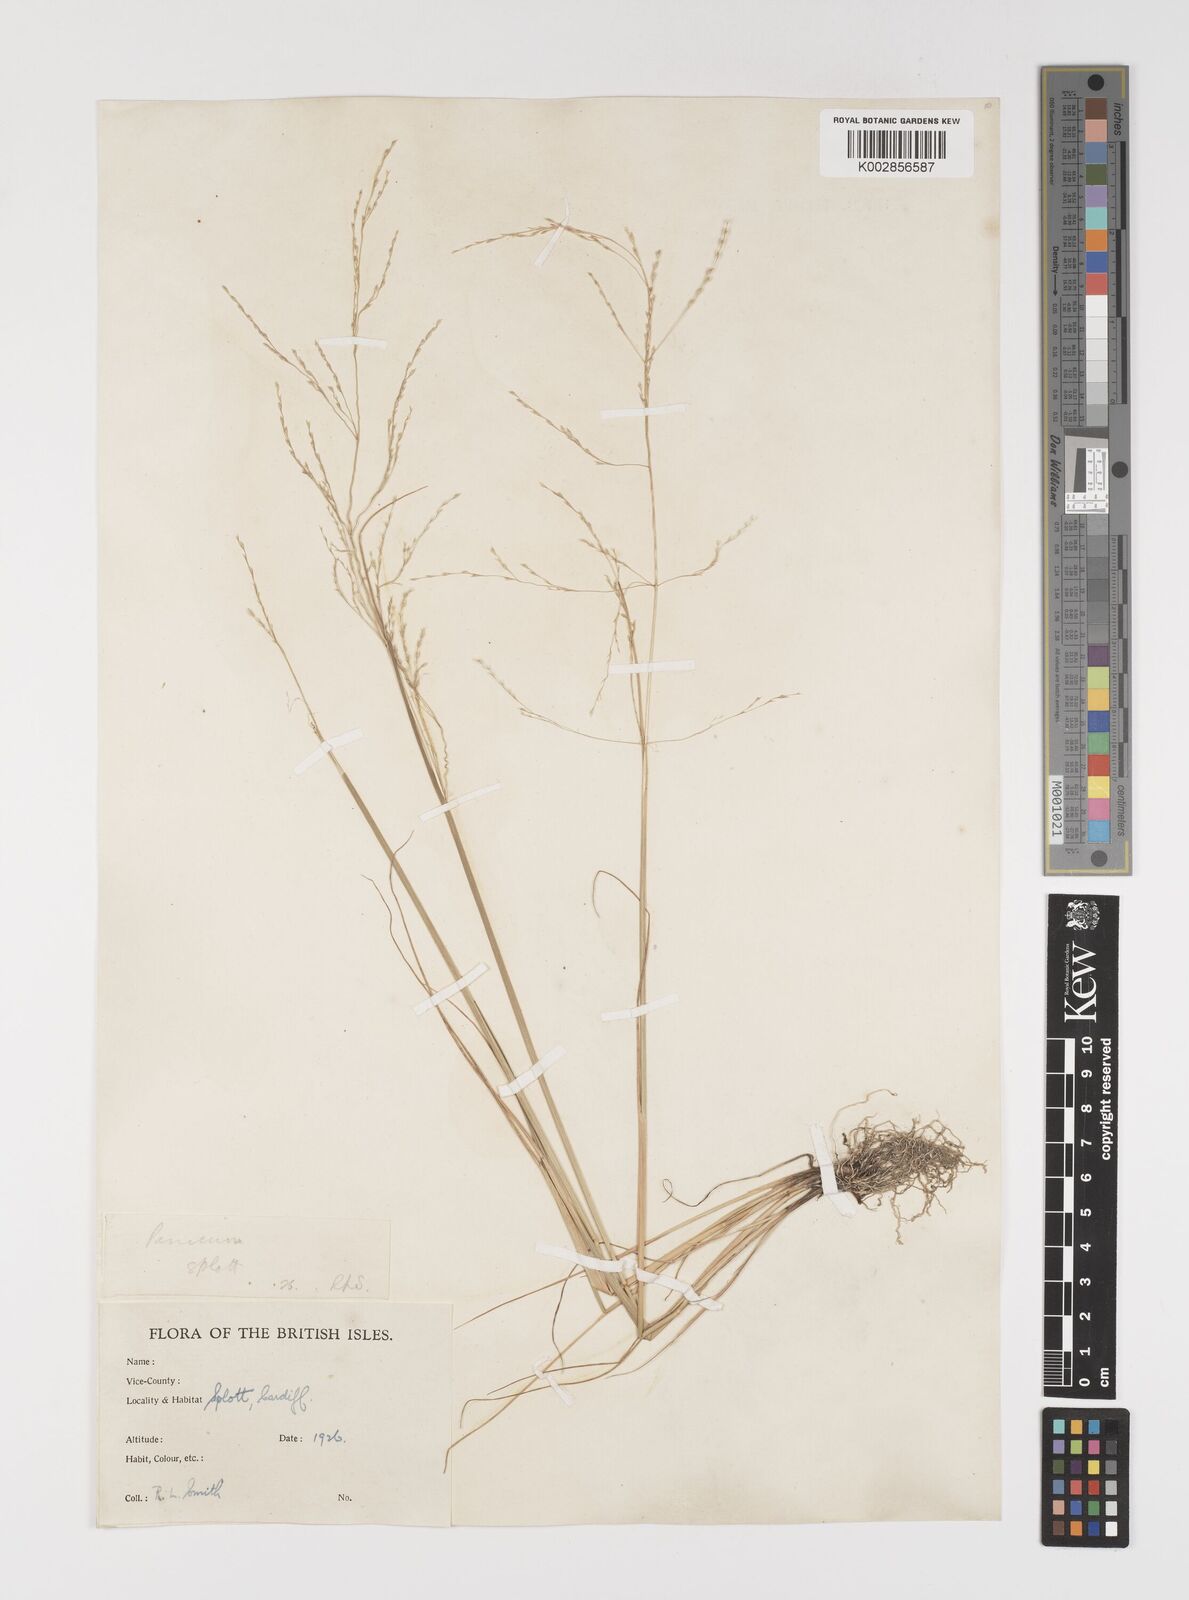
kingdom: Plantae
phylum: Tracheophyta
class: Liliopsida
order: Poales
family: Poaceae
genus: Puccinellia
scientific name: Puccinellia distans
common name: Weeping alkaligrass
